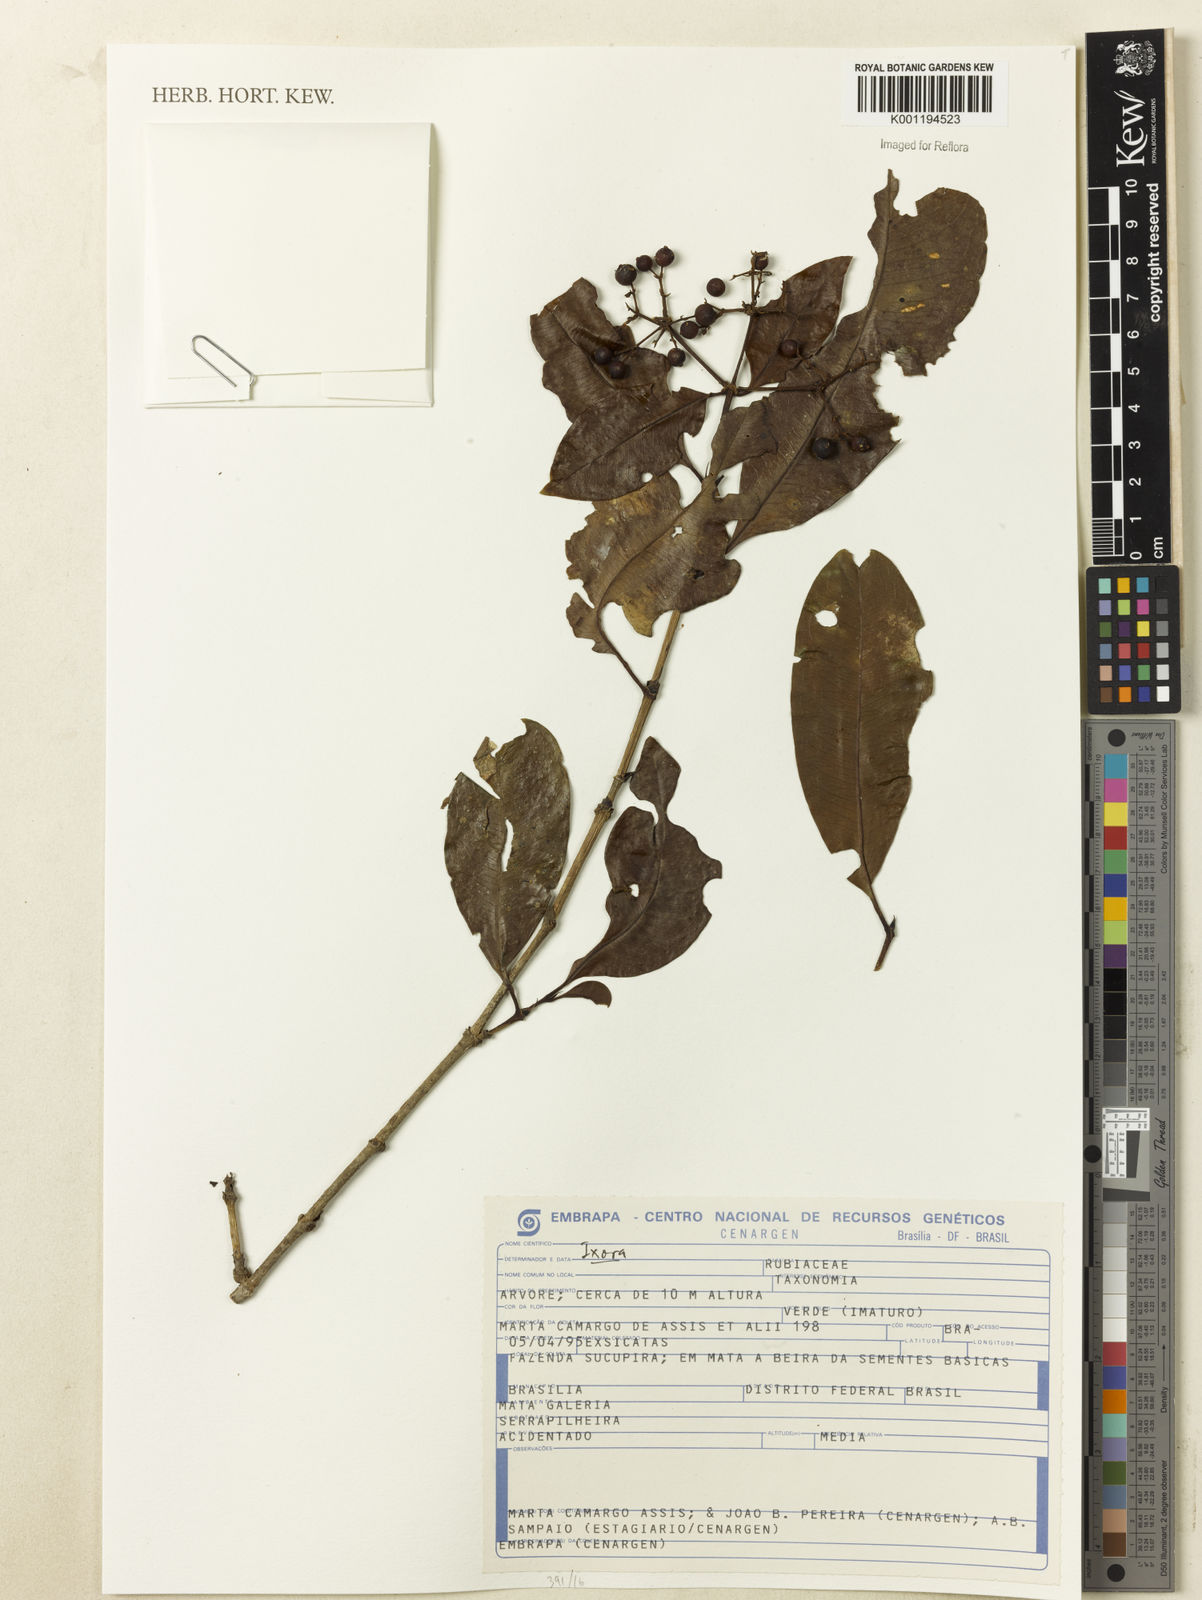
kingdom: Plantae
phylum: Tracheophyta
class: Magnoliopsida
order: Gentianales
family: Rubiaceae
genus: Ixora
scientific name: Ixora
